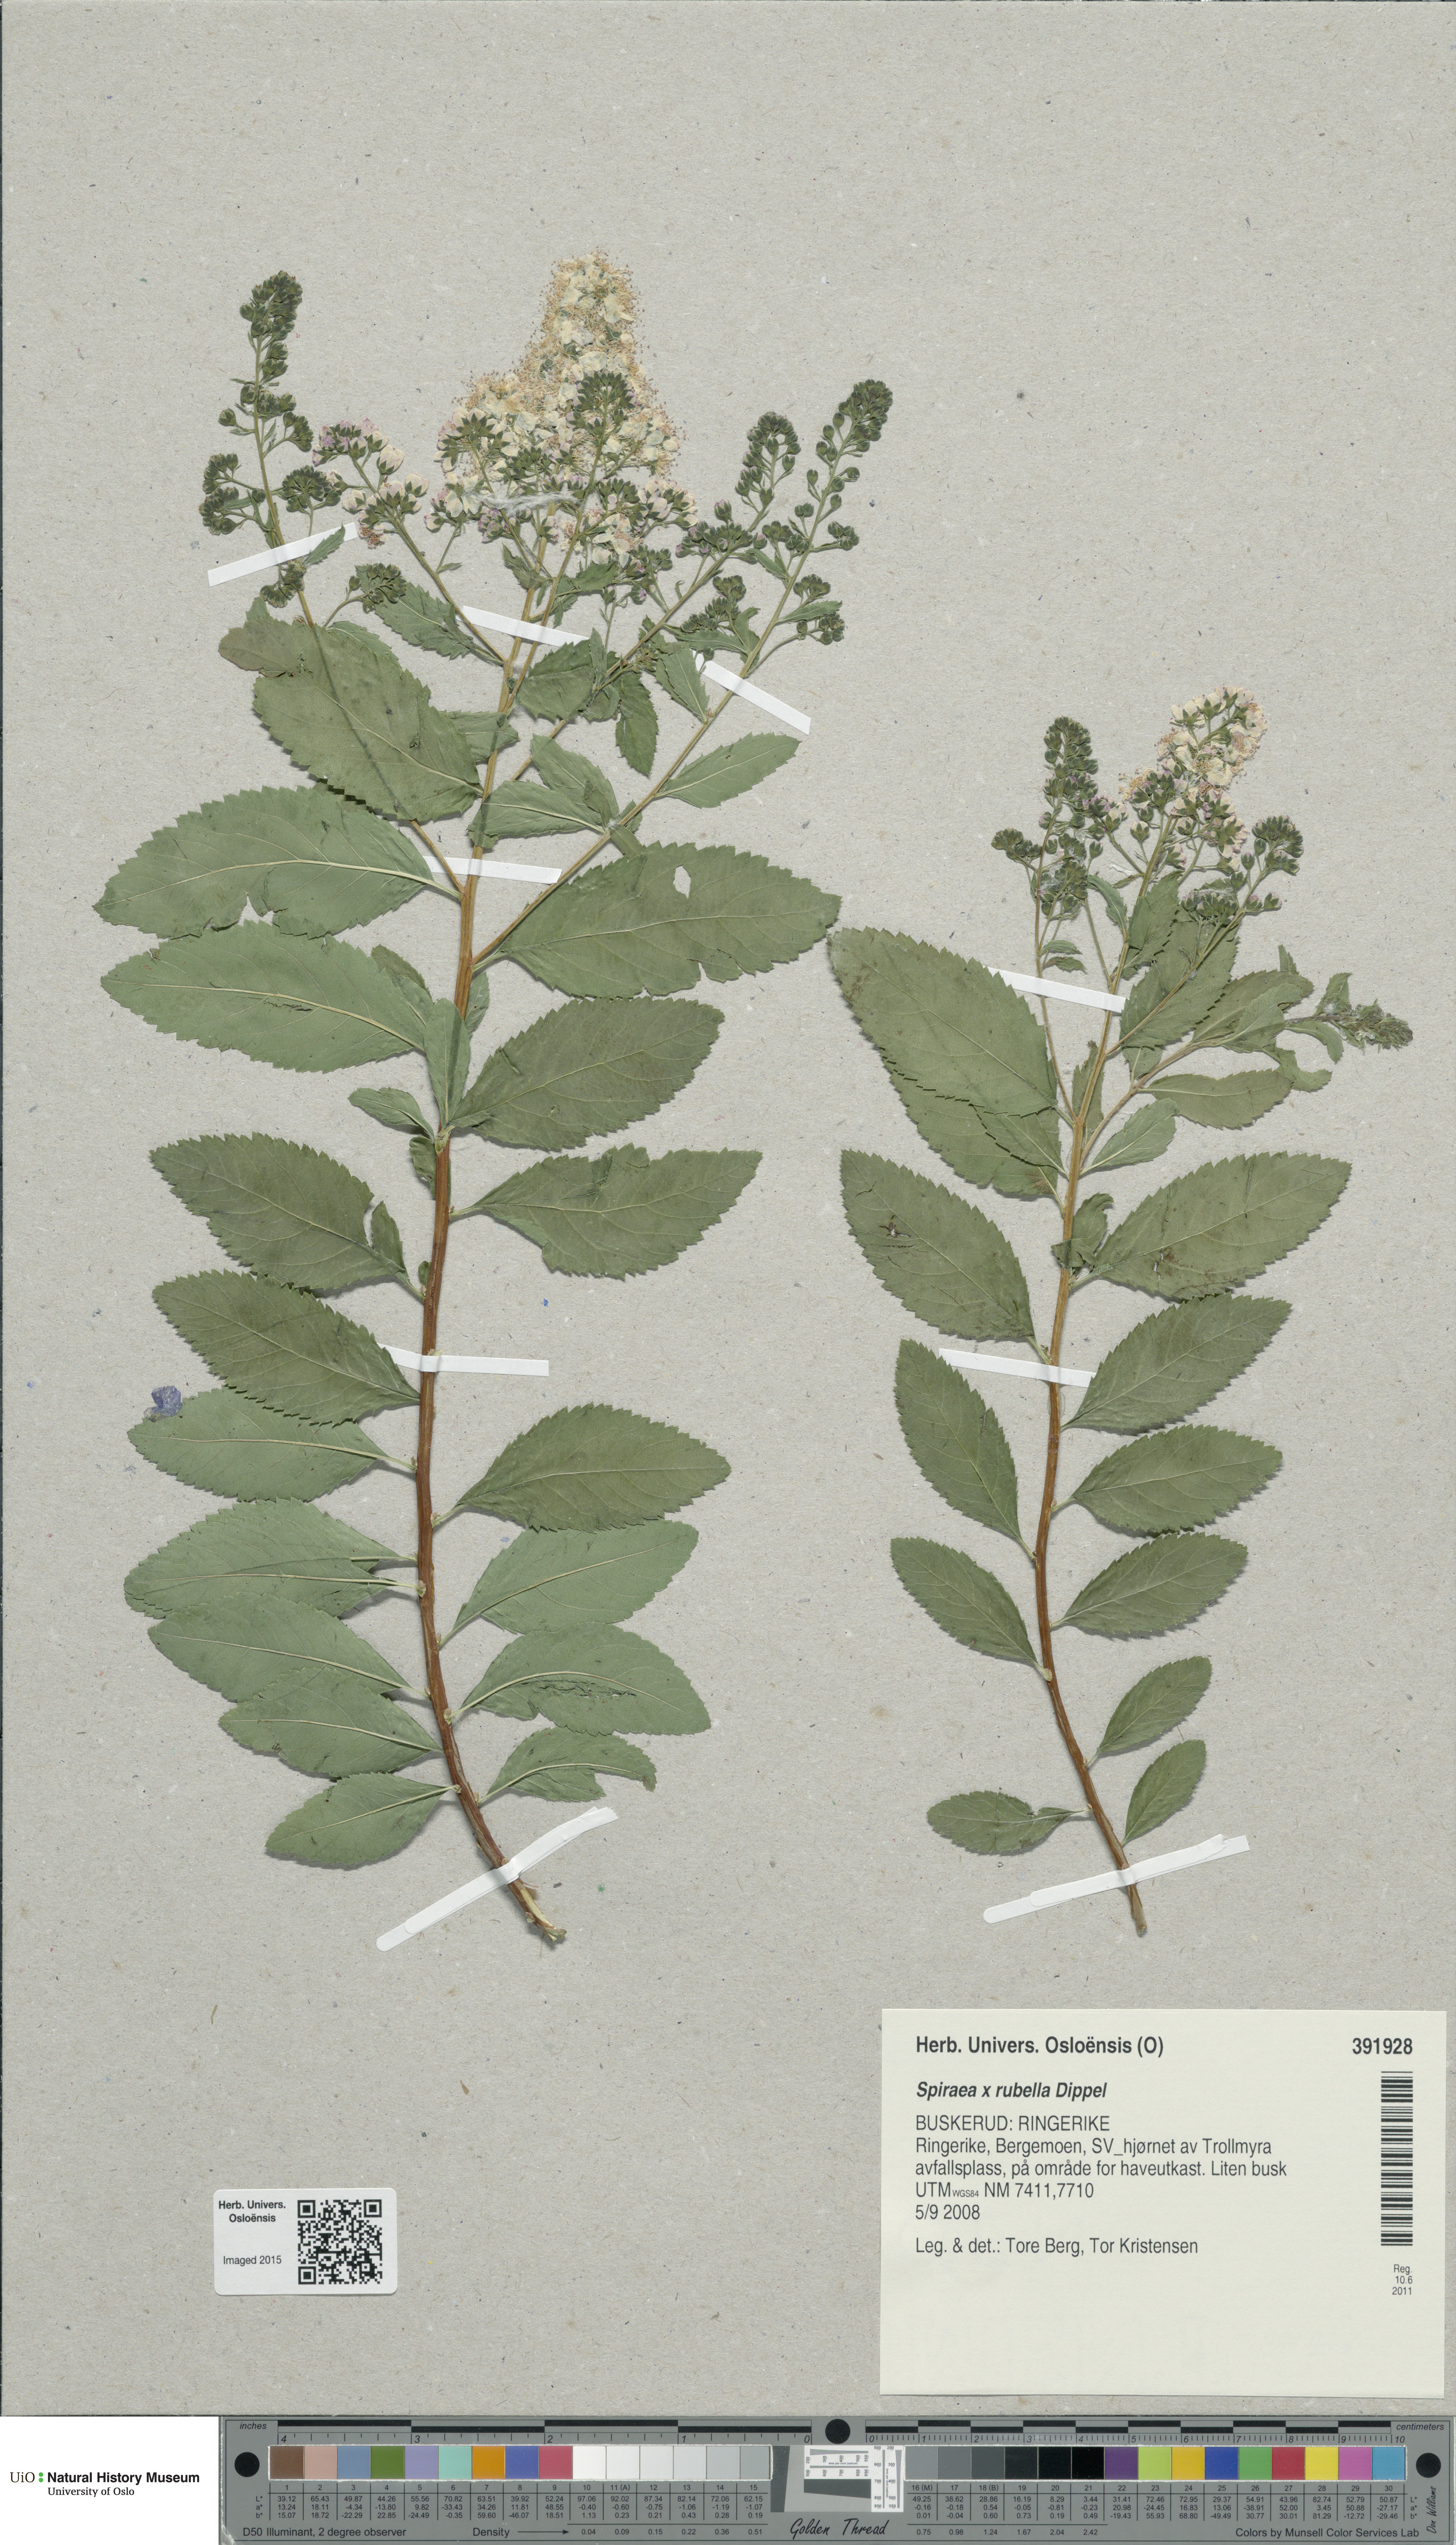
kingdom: Plantae
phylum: Tracheophyta
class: Magnoliopsida
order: Rosales
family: Rosaceae
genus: Spiraea
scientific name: Spiraea rosalba
